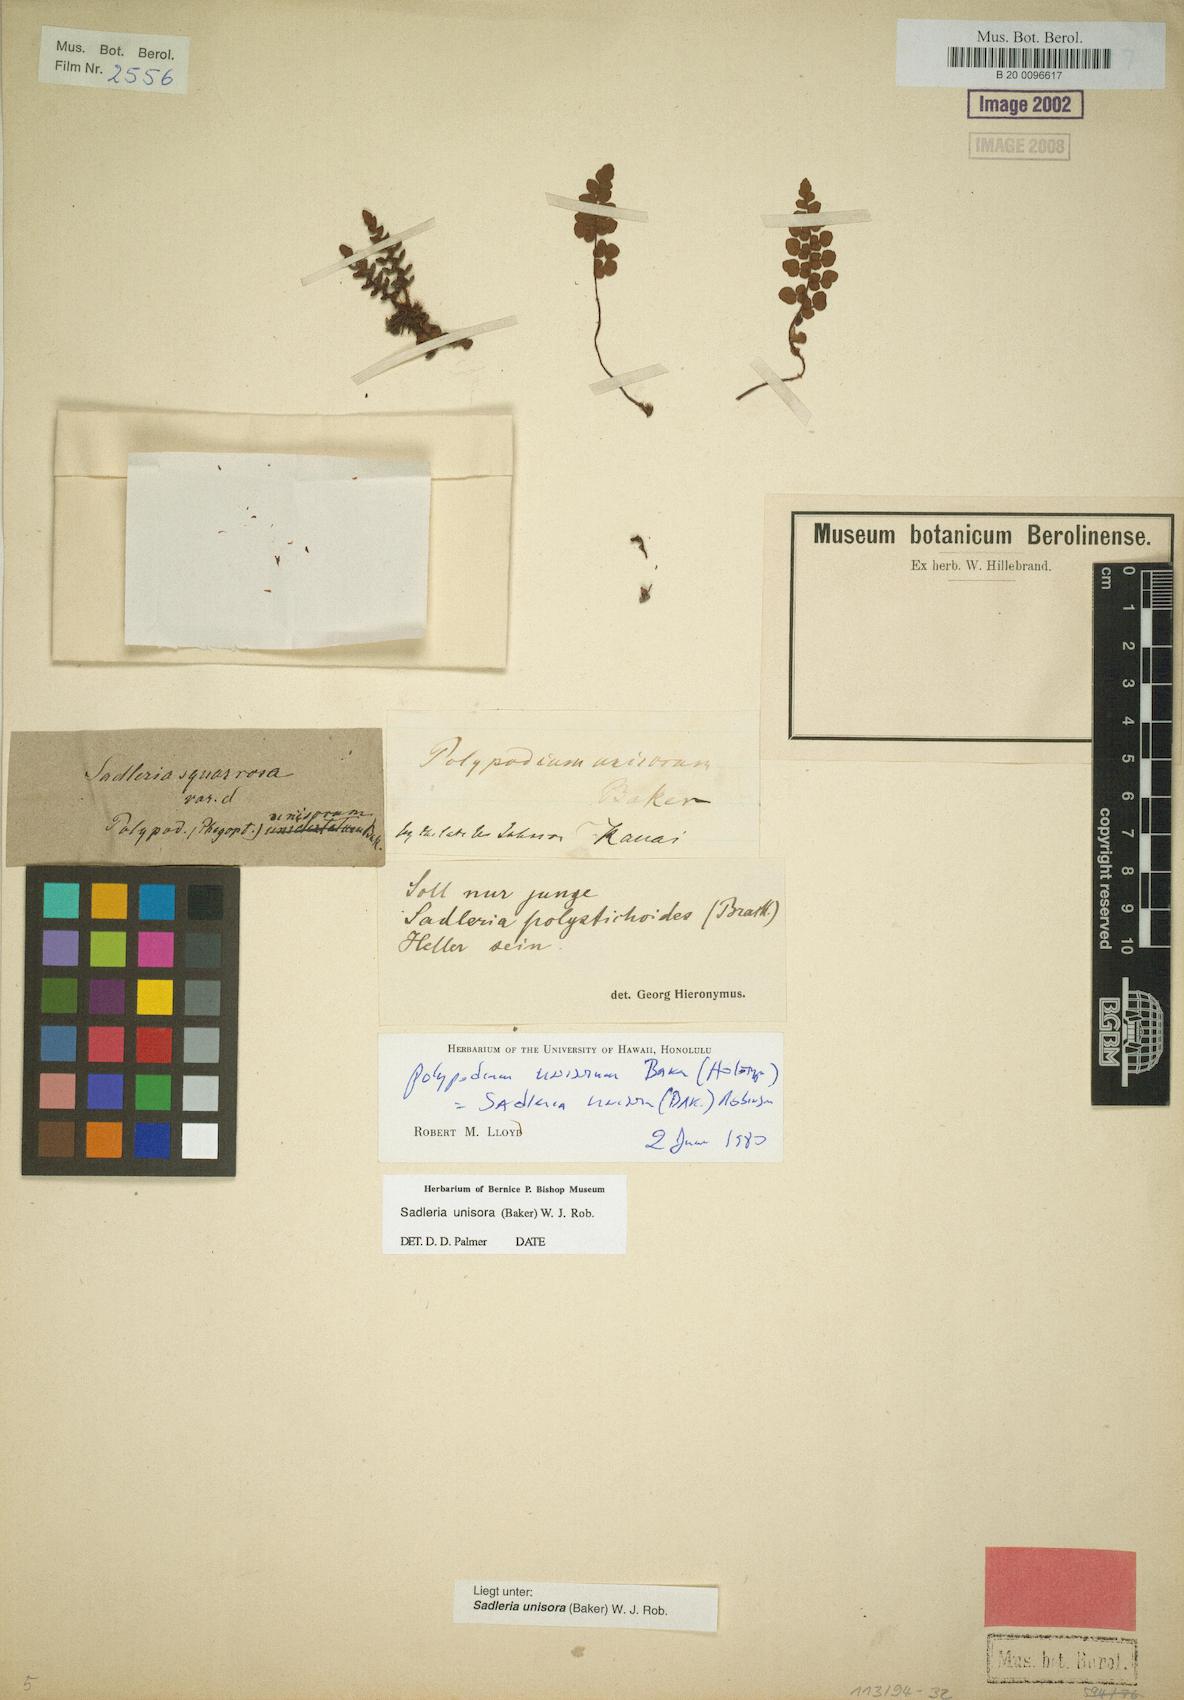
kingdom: Plantae
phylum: Tracheophyta
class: Polypodiopsida
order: Polypodiales
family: Blechnaceae
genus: Sadleria
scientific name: Sadleria unisora
